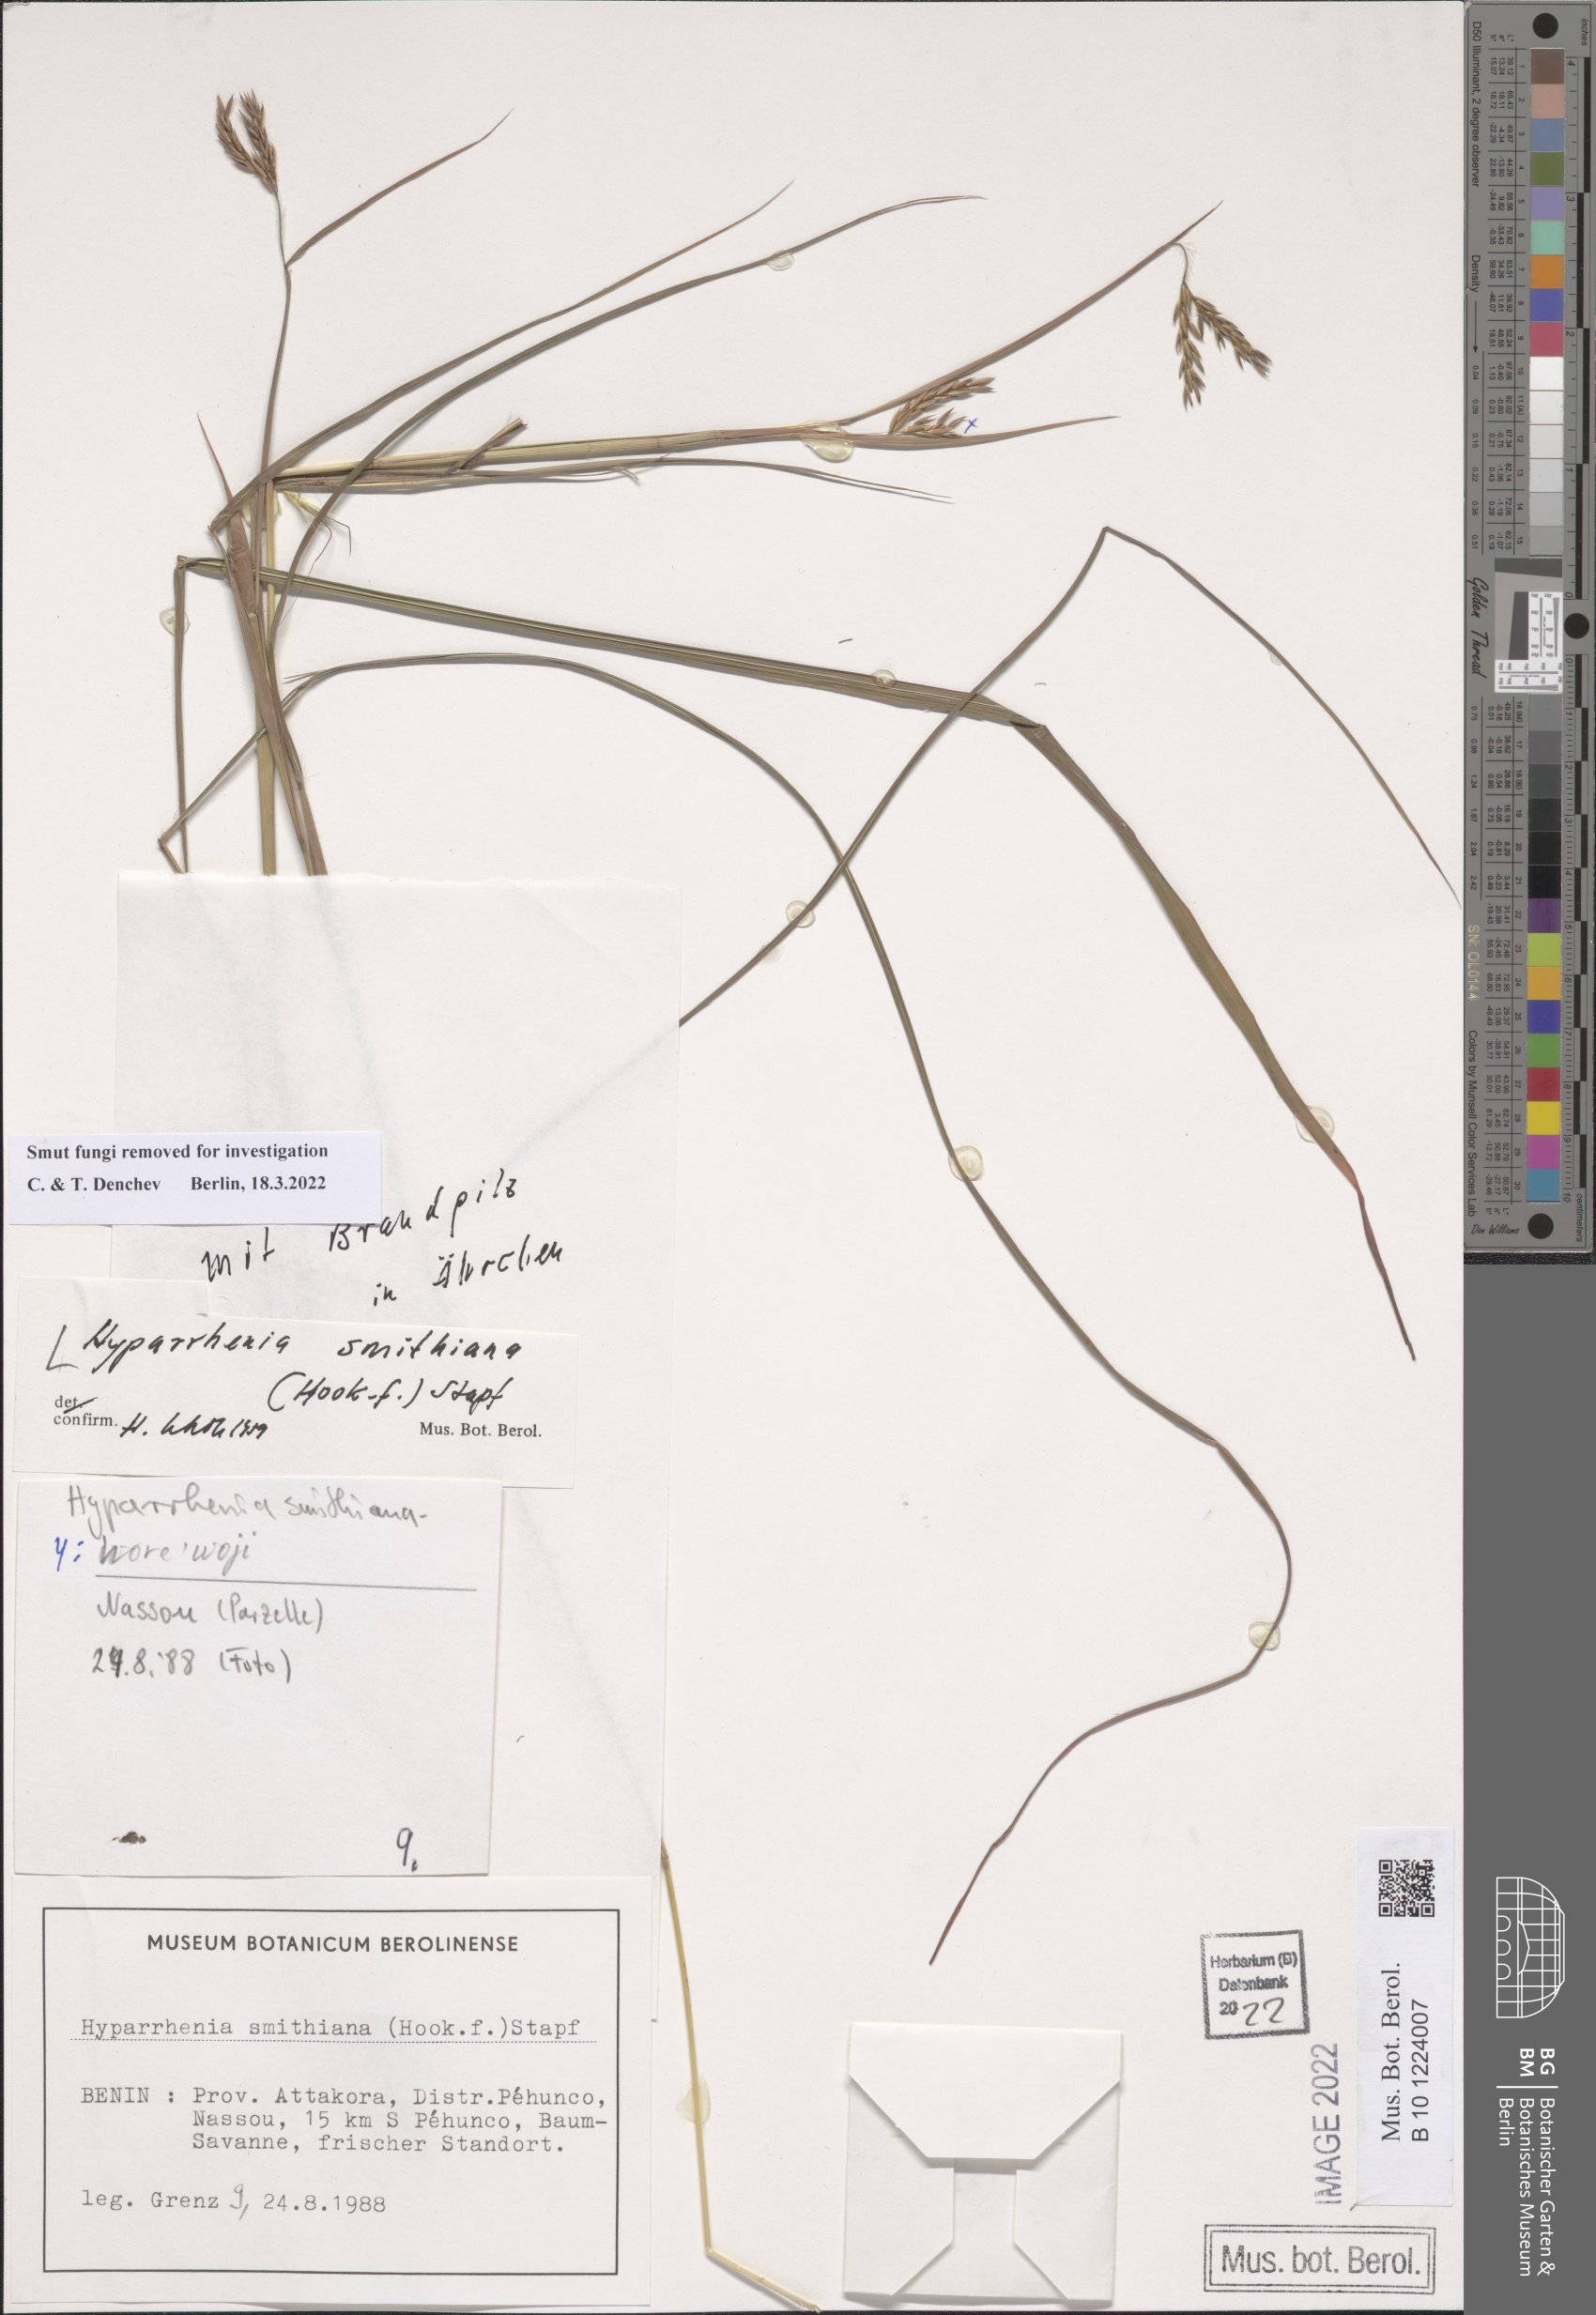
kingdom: Plantae
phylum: Tracheophyta
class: Liliopsida
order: Poales
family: Poaceae
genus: Hyparrhenia
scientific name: Hyparrhenia smithiana
